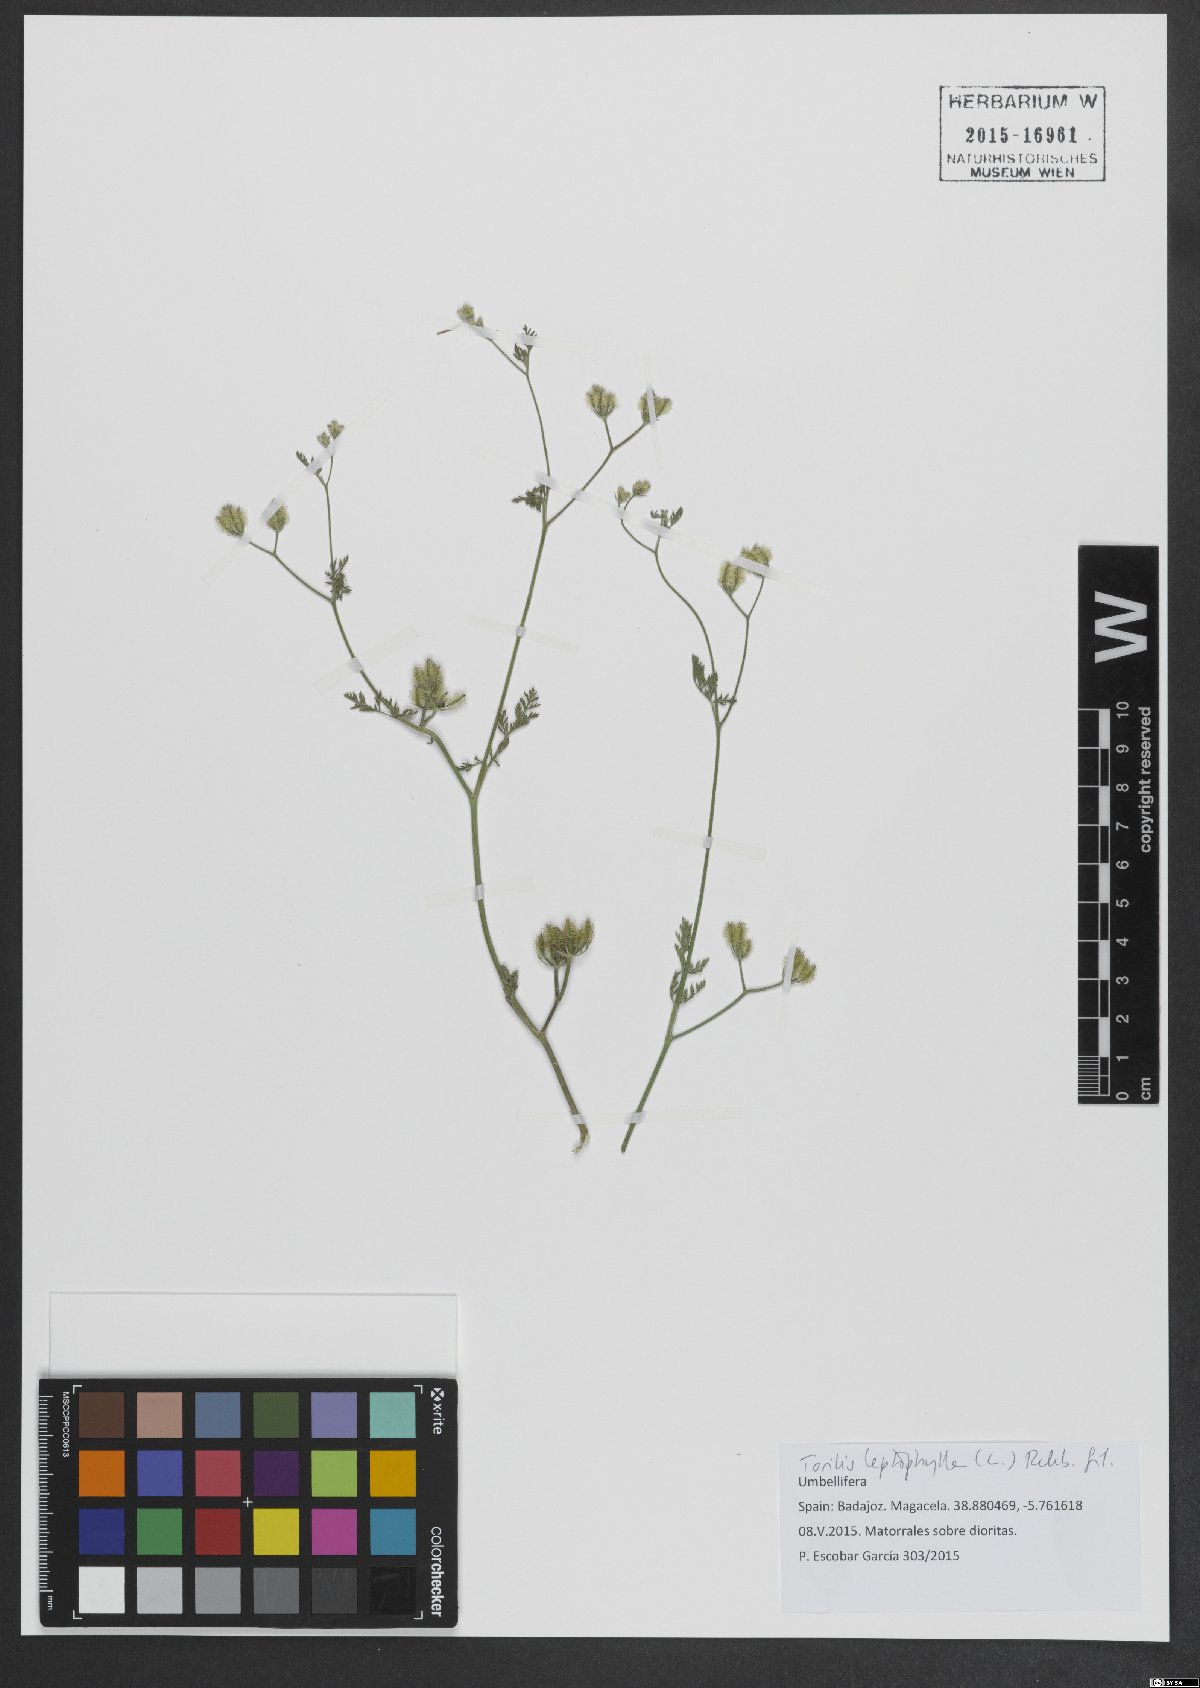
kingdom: Plantae
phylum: Tracheophyta
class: Magnoliopsida
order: Apiales
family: Apiaceae
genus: Torilis
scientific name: Torilis leptophylla
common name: Bristlefruit hedgeparsley
